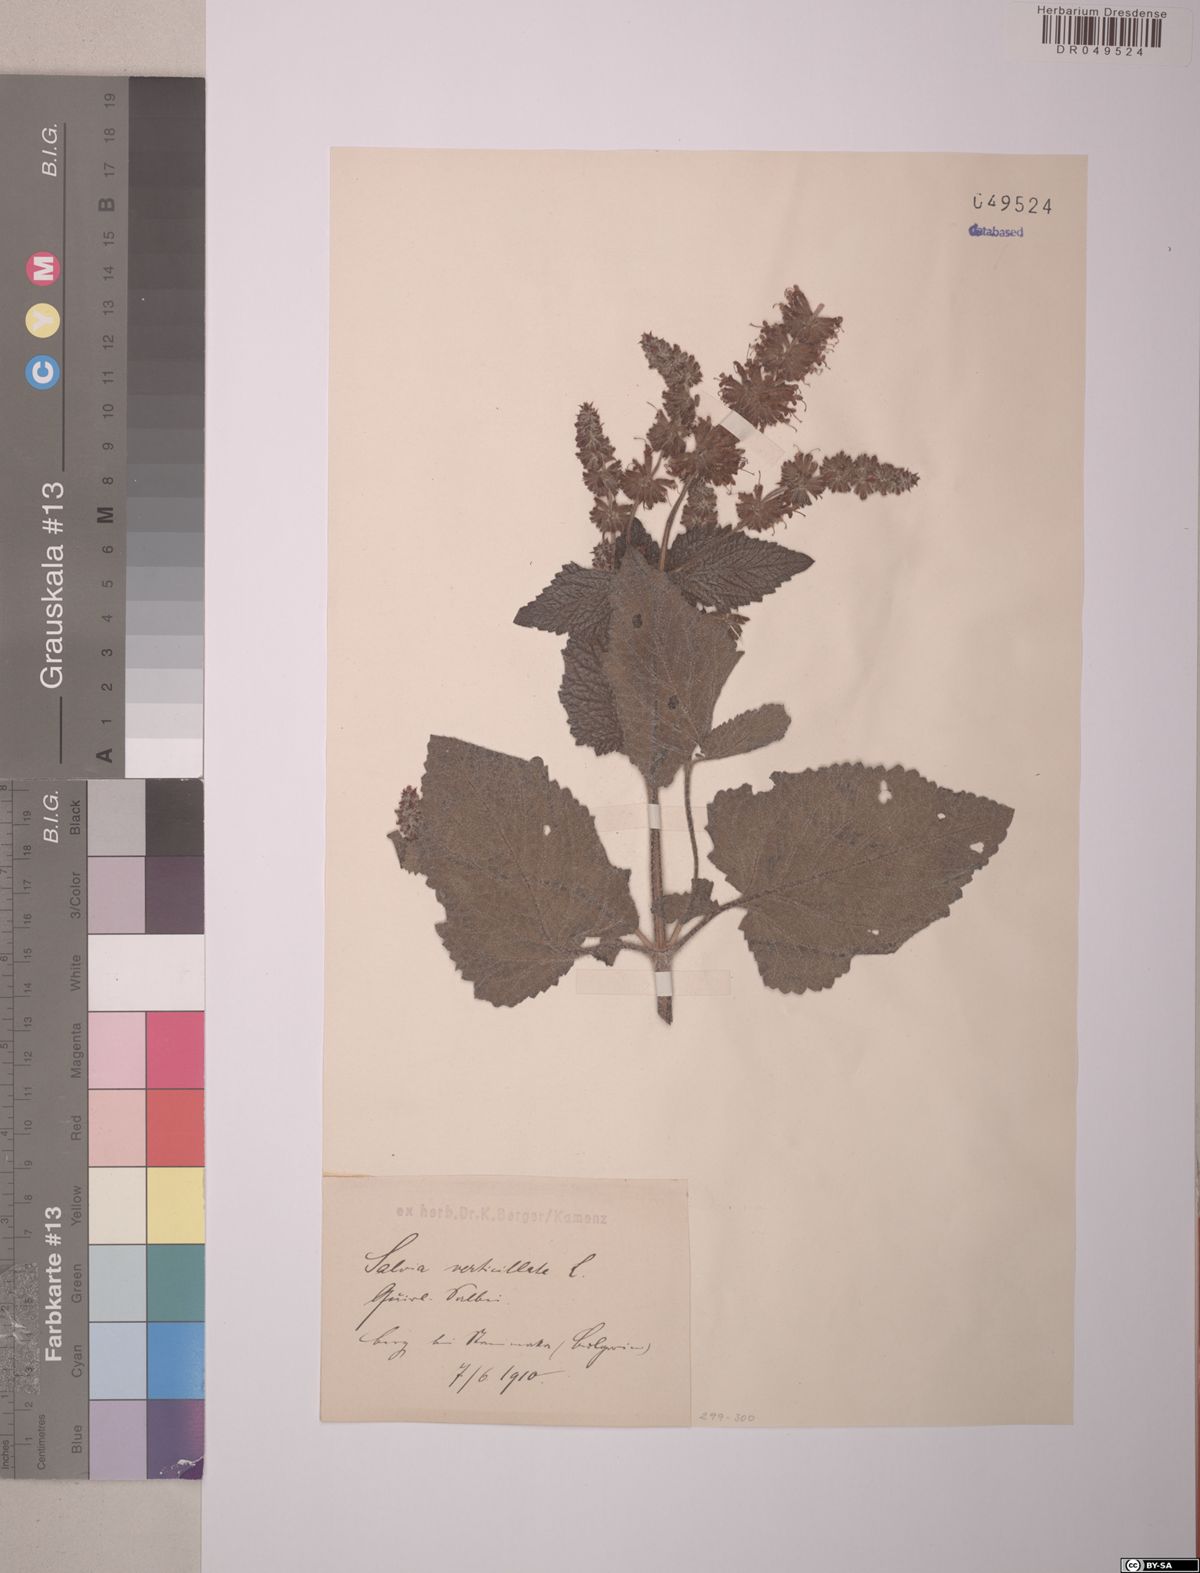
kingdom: Plantae
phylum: Tracheophyta
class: Magnoliopsida
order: Lamiales
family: Lamiaceae
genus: Salvia
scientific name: Salvia verticillata
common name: Whorled clary
